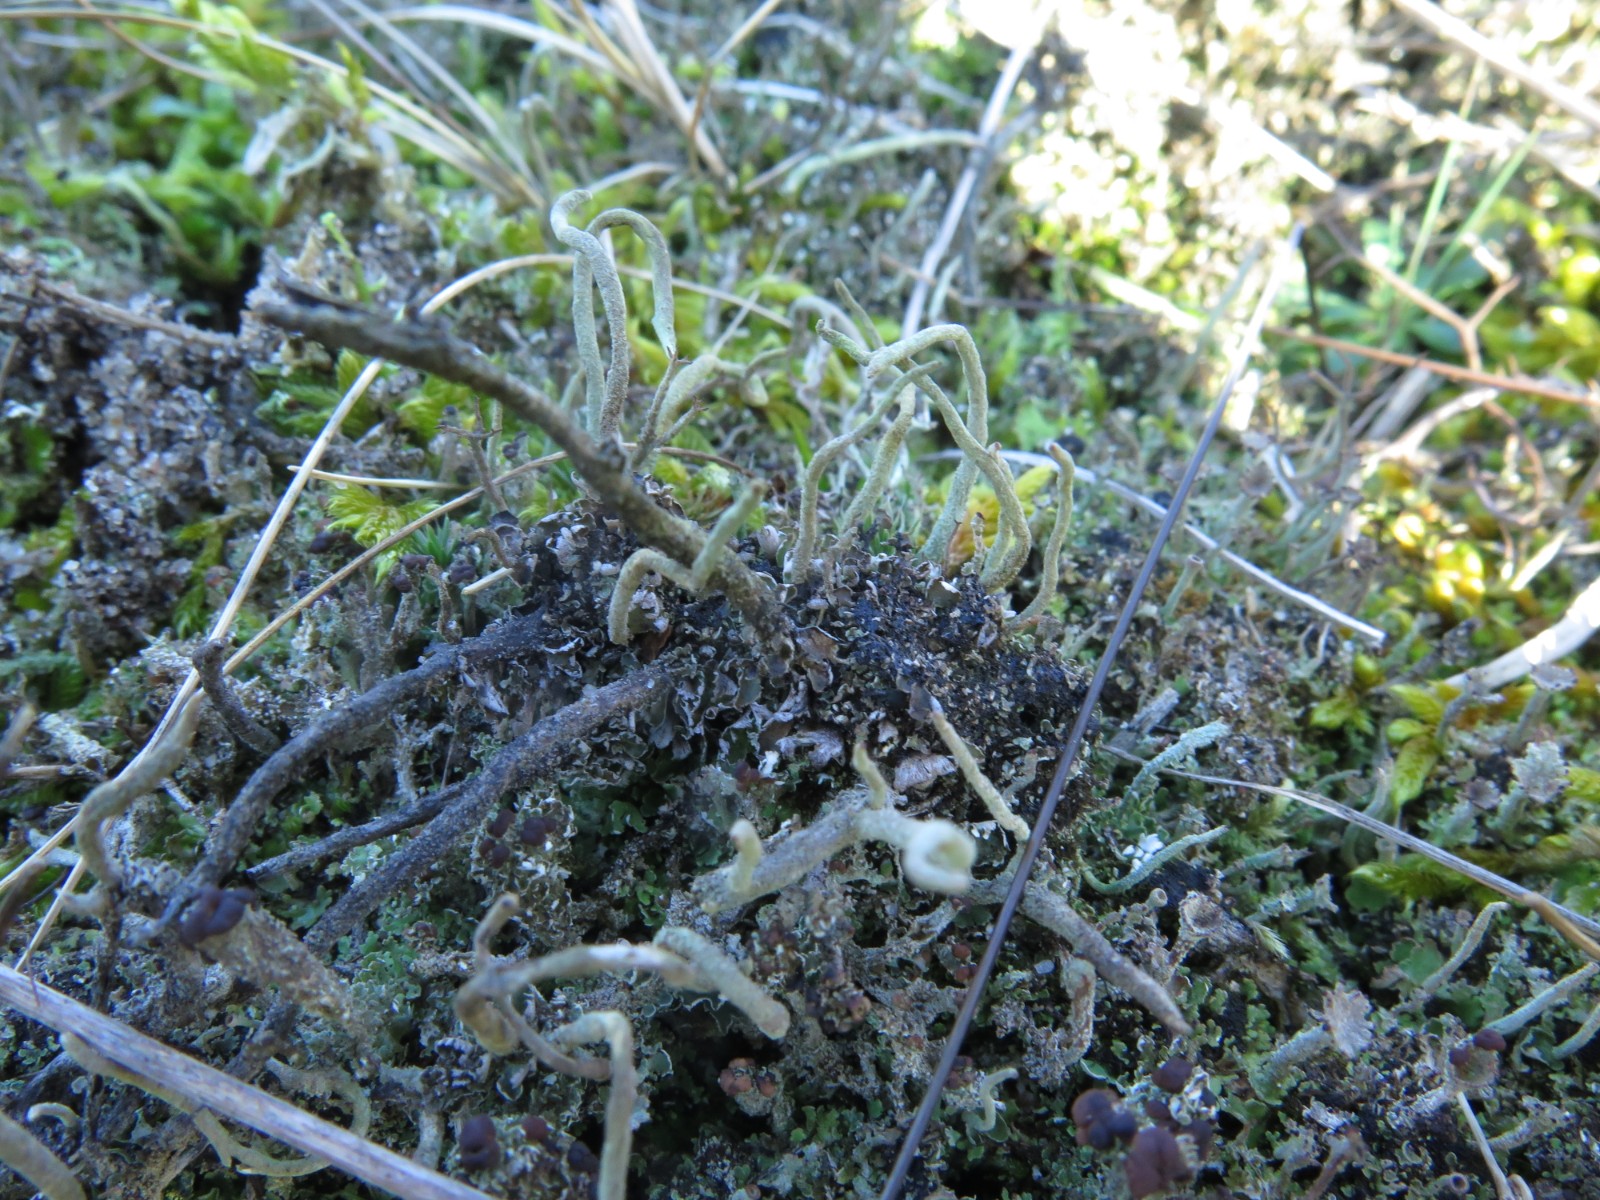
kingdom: Fungi
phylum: Ascomycota
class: Lecanoromycetes
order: Lecanorales
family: Cladoniaceae
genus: Cladonia
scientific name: Cladonia
